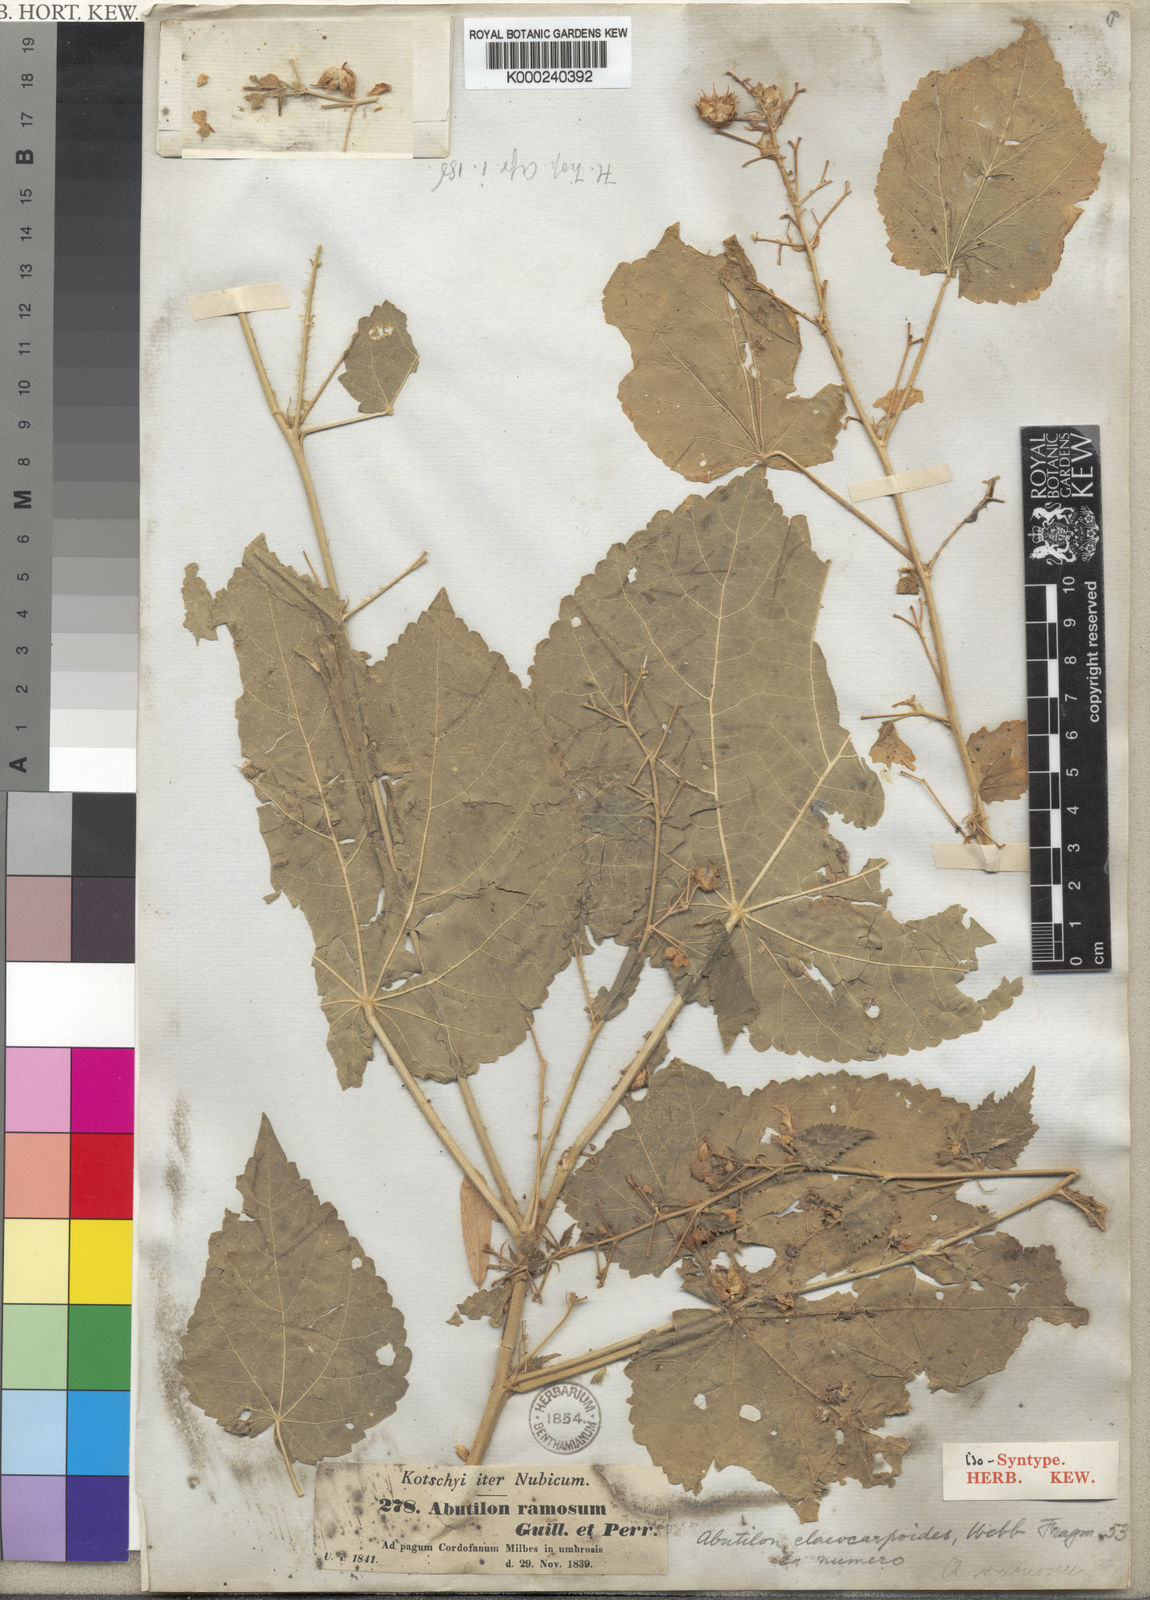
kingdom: Plantae
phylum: Tracheophyta
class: Magnoliopsida
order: Malvales
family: Malvaceae
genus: Abutilon
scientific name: Abutilon ramosum
